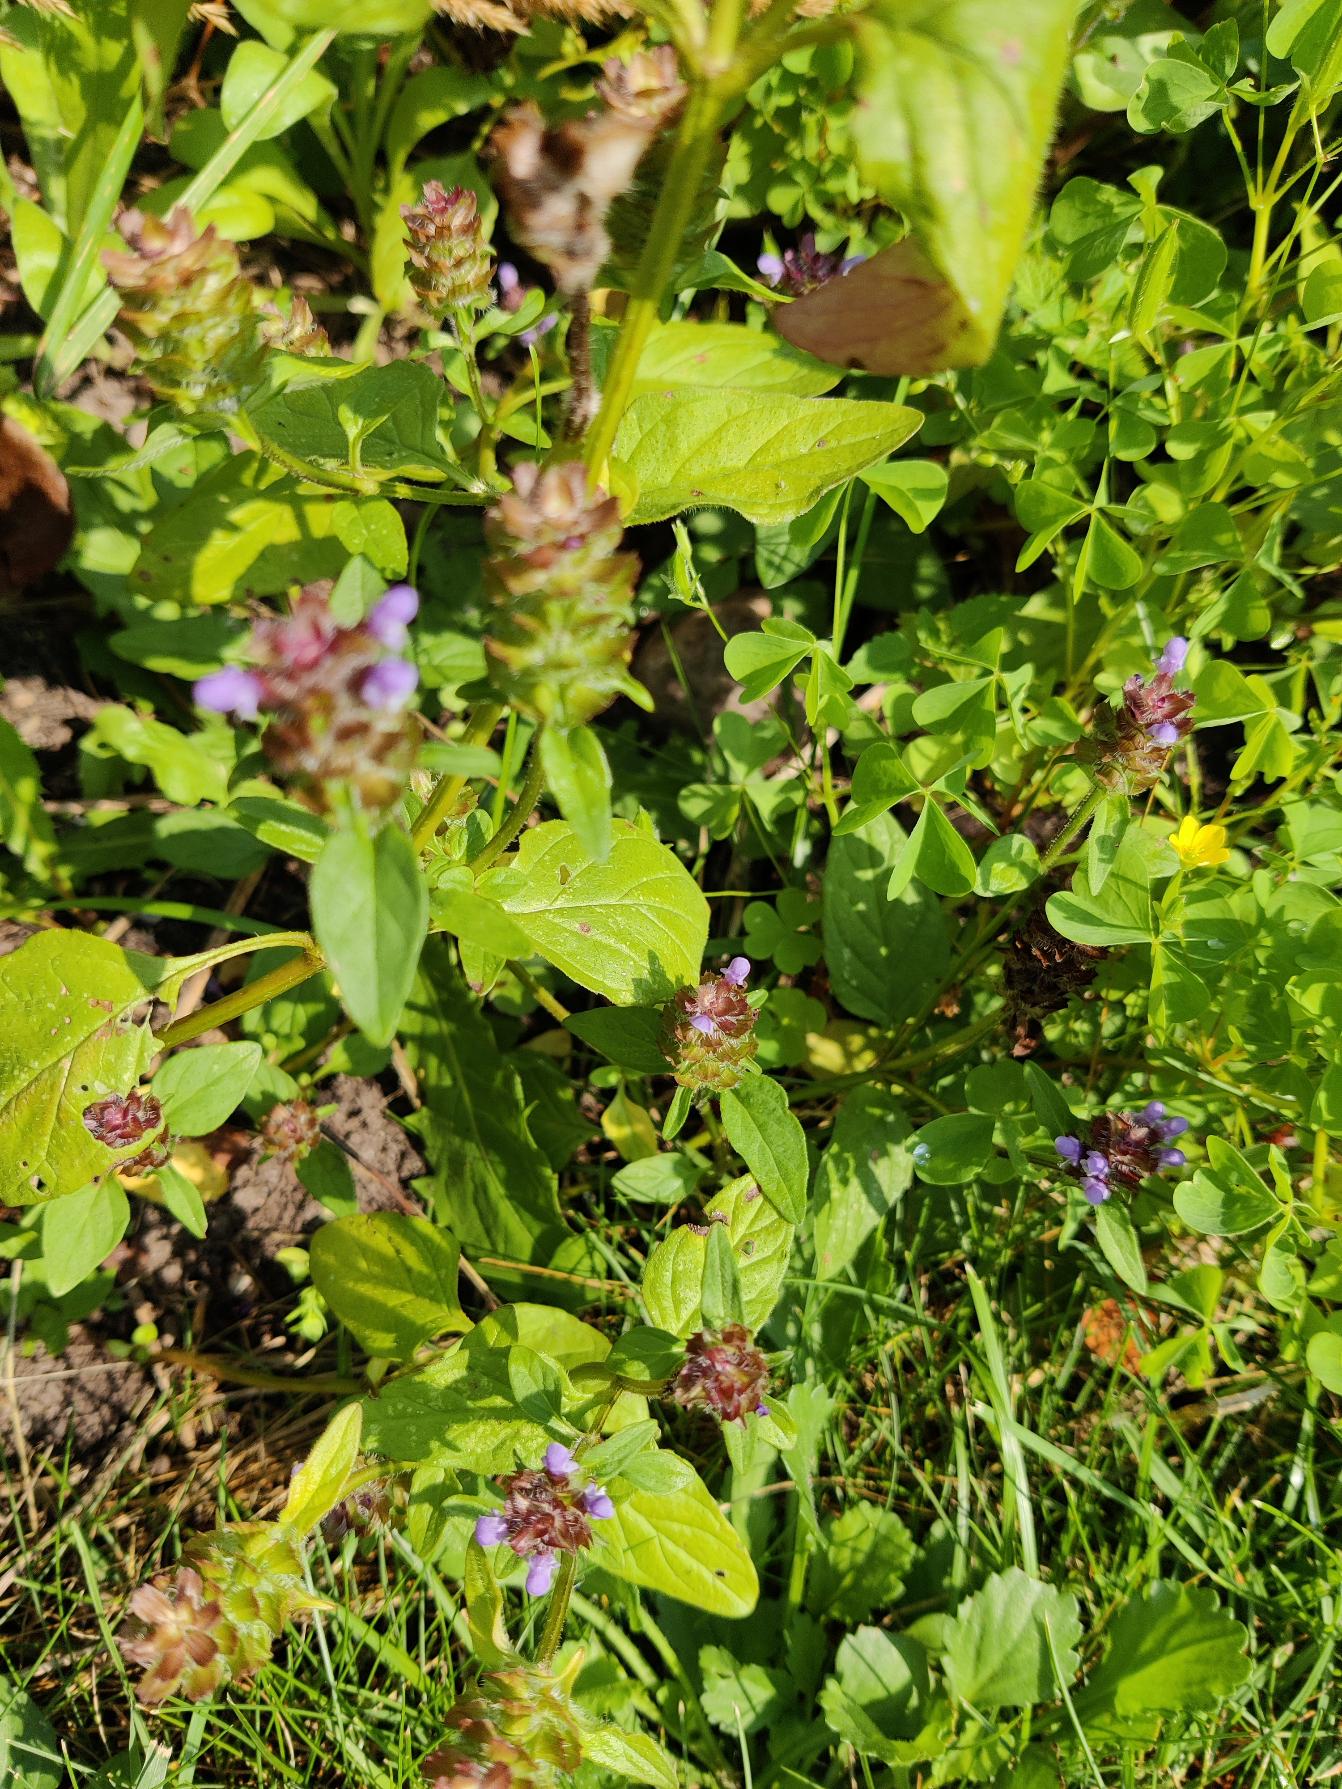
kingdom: Plantae
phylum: Tracheophyta
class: Magnoliopsida
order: Lamiales
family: Lamiaceae
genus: Prunella
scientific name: Prunella vulgaris
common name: Almindelig brunelle
